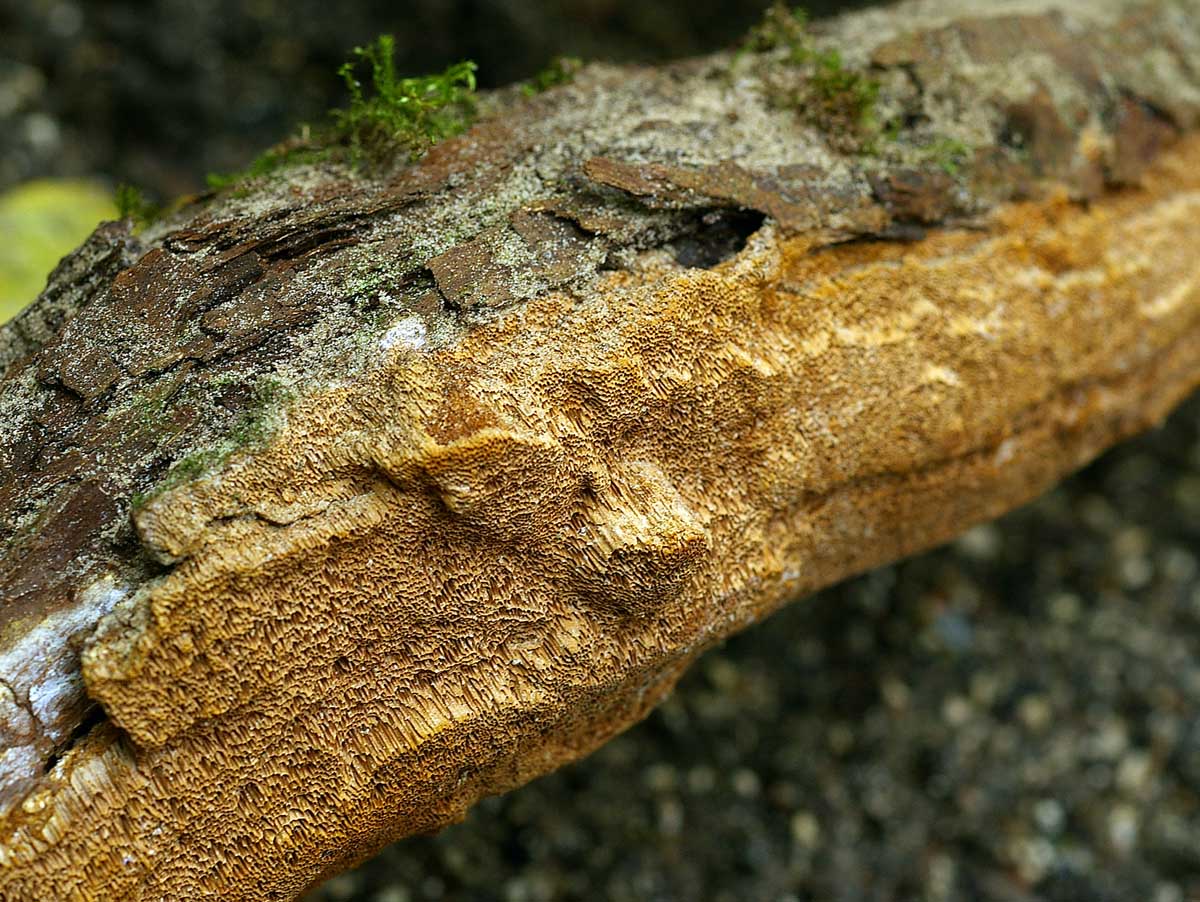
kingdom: Fungi
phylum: Basidiomycota
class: Agaricomycetes
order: Hymenochaetales
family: Hymenochaetaceae
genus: Fuscoporia
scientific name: Fuscoporia contigua
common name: grov ildporesvamp
